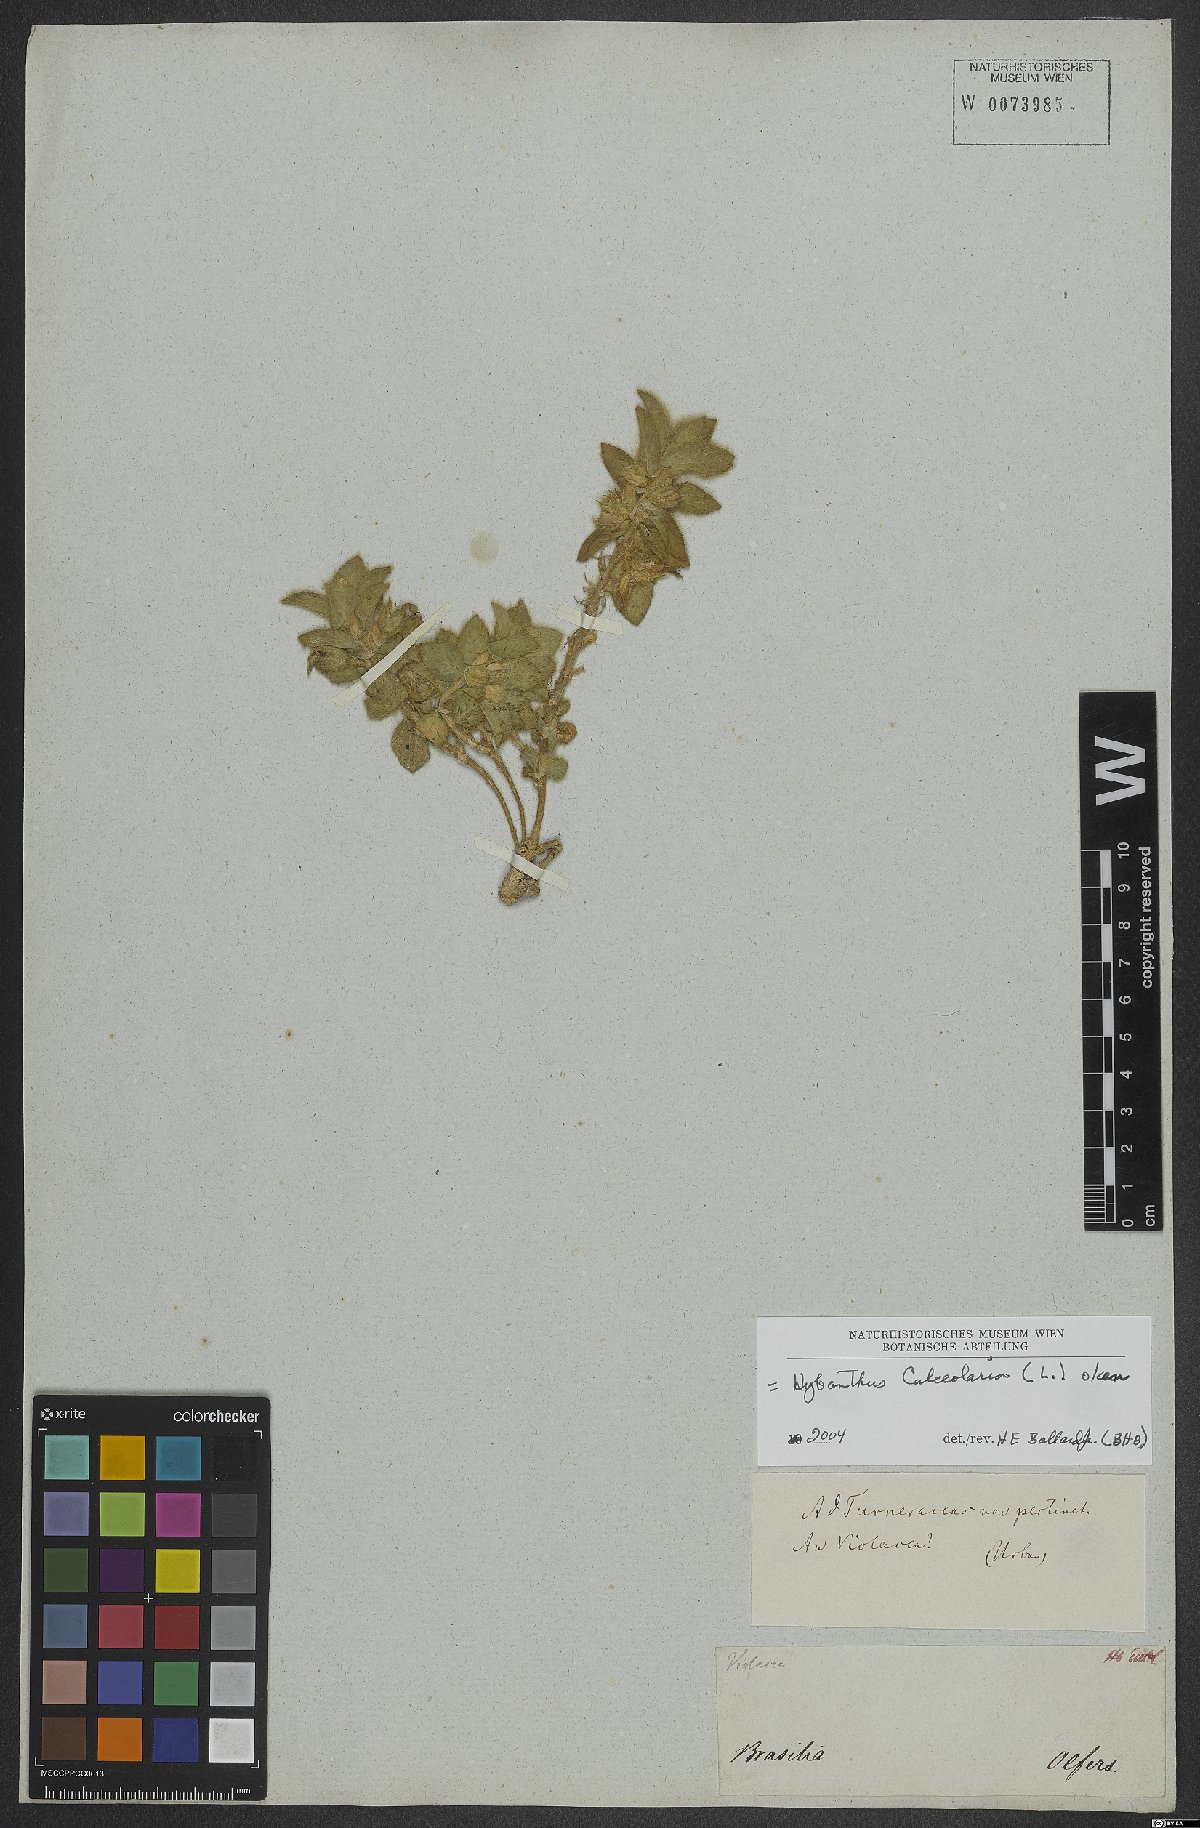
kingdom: Plantae
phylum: Tracheophyta
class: Magnoliopsida
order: Malpighiales
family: Violaceae
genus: Pombalia
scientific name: Pombalia calceolaria
